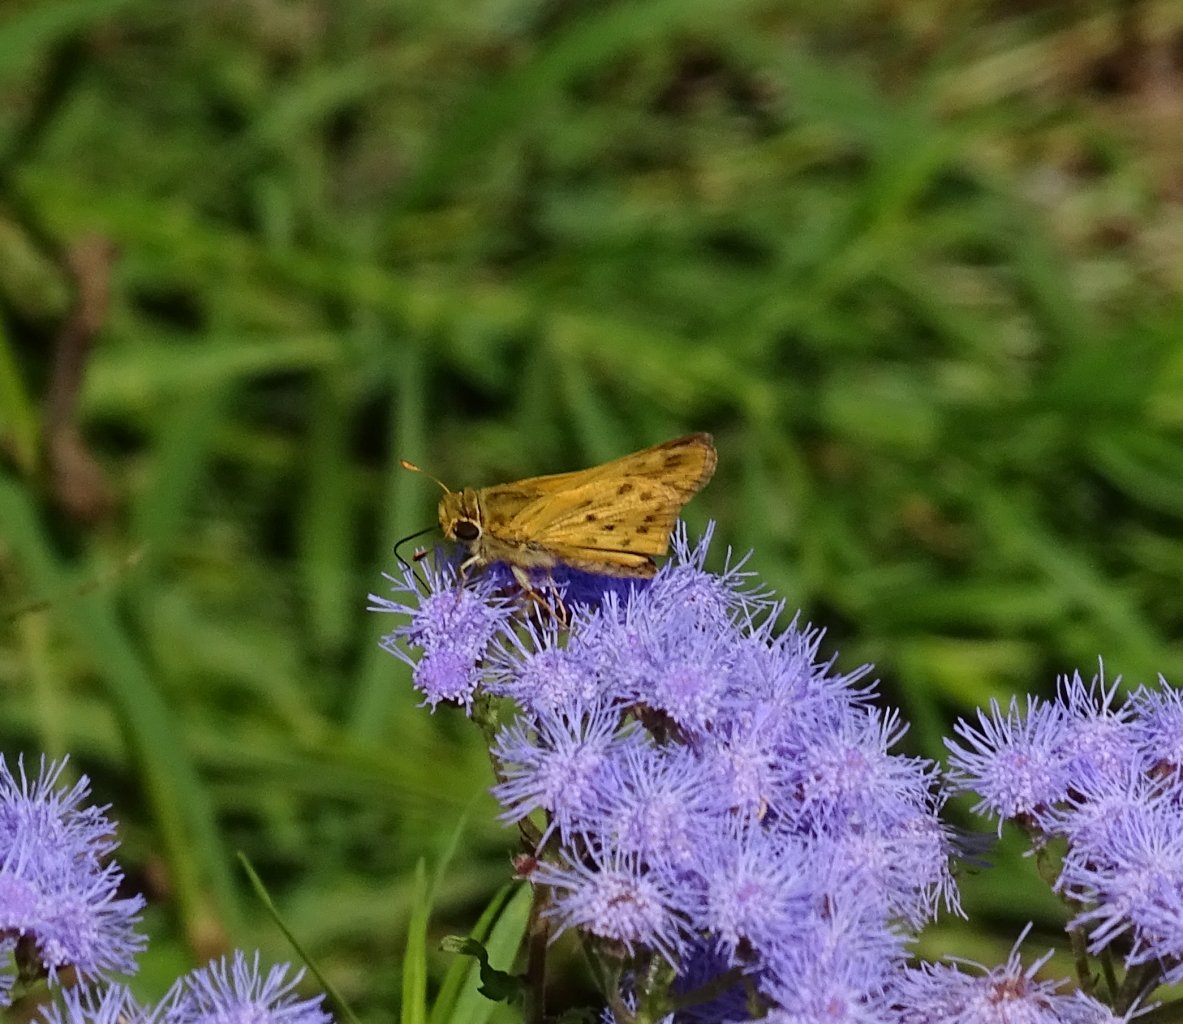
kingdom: Animalia
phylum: Arthropoda
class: Insecta
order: Lepidoptera
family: Hesperiidae
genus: Hylephila
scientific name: Hylephila phyleus
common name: Fiery Skipper
